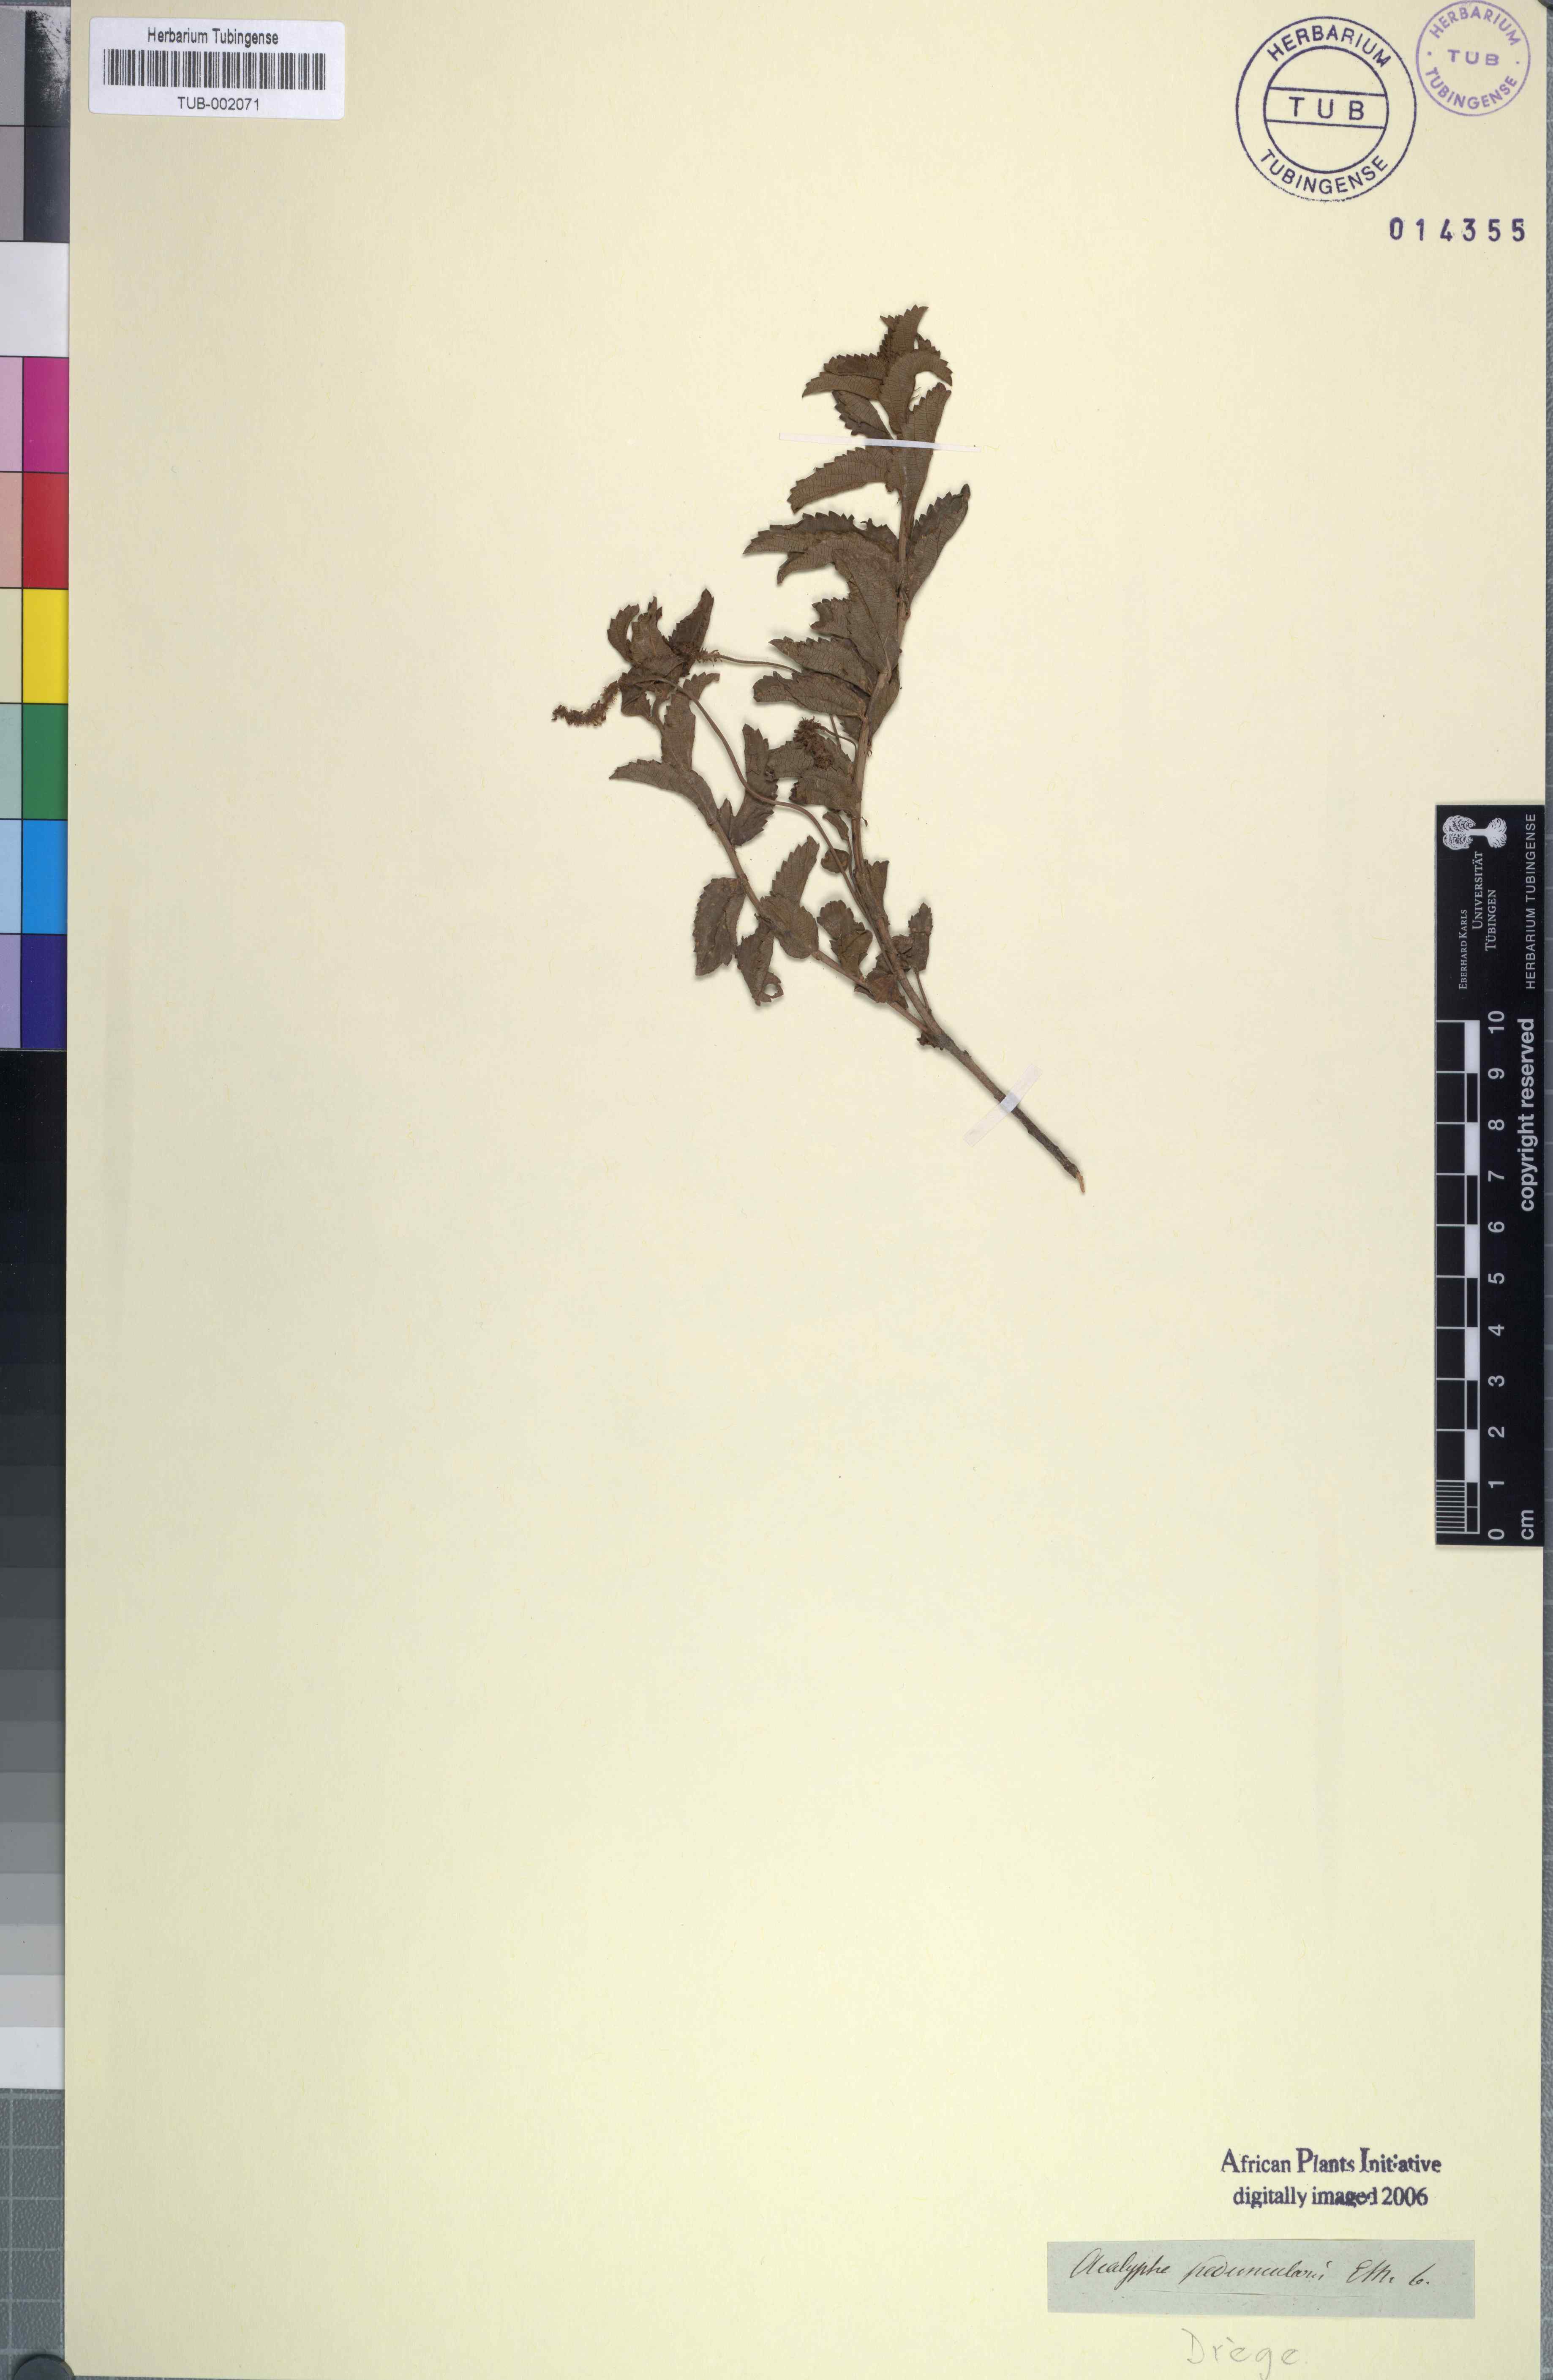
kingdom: Plantae
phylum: Tracheophyta
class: Magnoliopsida
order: Malpighiales
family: Euphorbiaceae
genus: Acalypha
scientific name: Acalypha zeyheri
